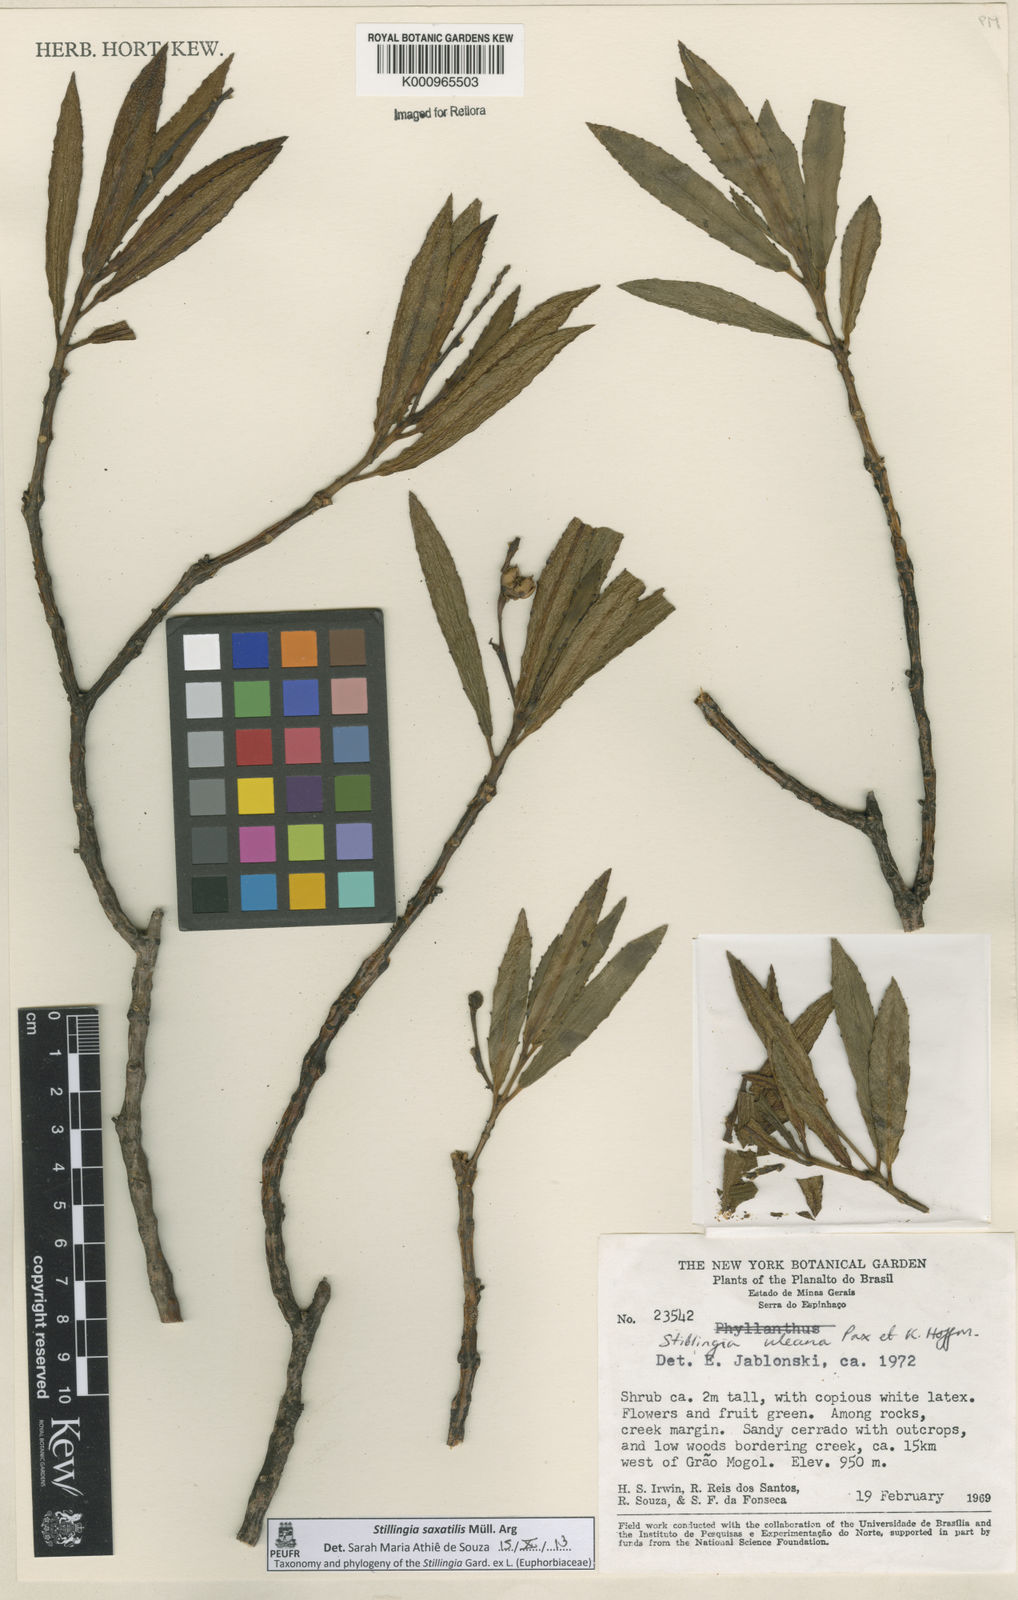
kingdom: Plantae
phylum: Tracheophyta
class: Magnoliopsida
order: Malpighiales
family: Euphorbiaceae
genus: Stillingia
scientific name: Stillingia
